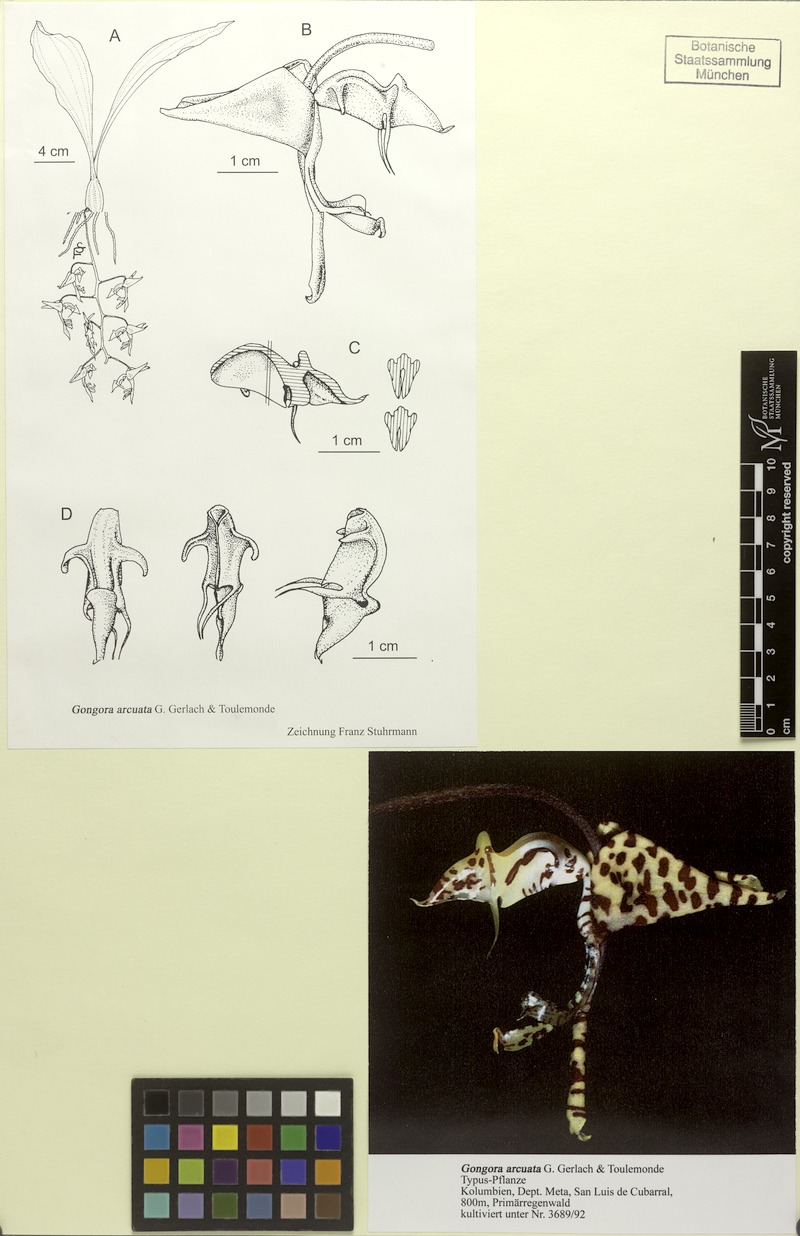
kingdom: Plantae
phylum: Tracheophyta
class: Liliopsida
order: Asparagales
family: Orchidaceae
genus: Gongora
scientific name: Gongora arcuata
